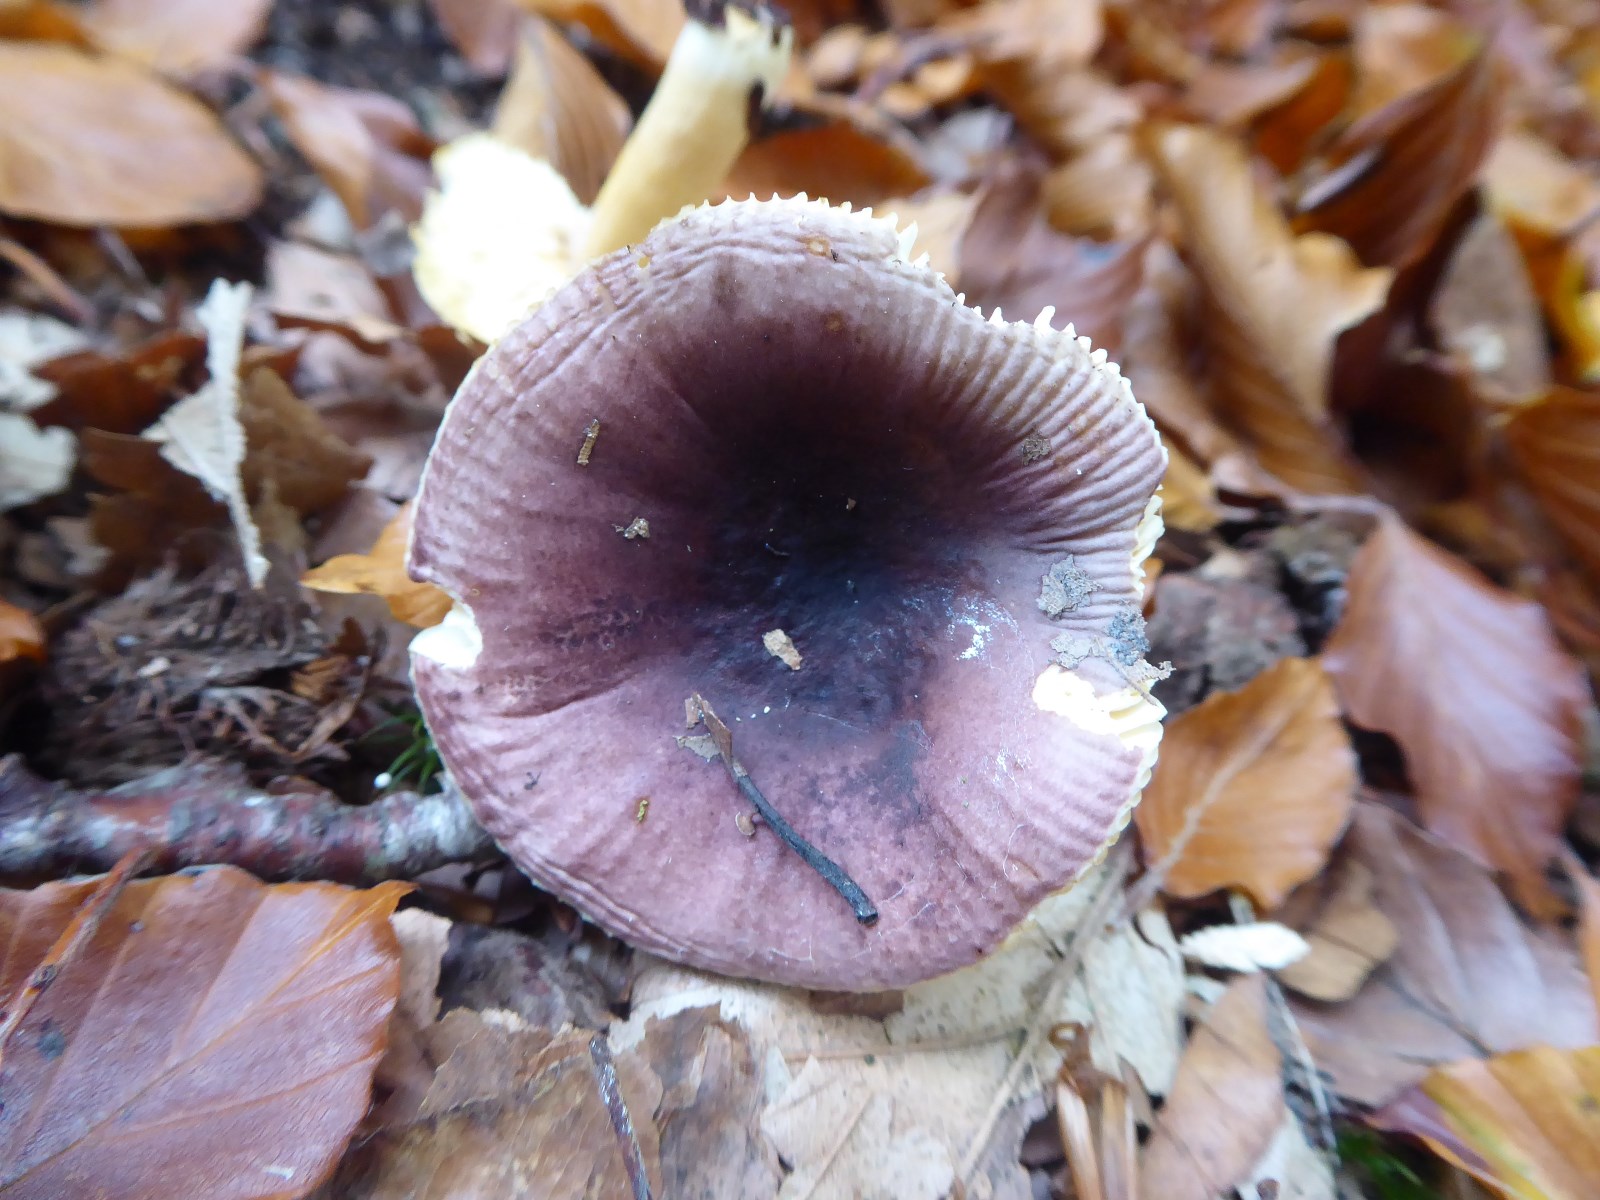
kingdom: Fungi
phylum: Basidiomycota
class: Agaricomycetes
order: Russulales
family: Russulaceae
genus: Russula
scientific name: Russula
